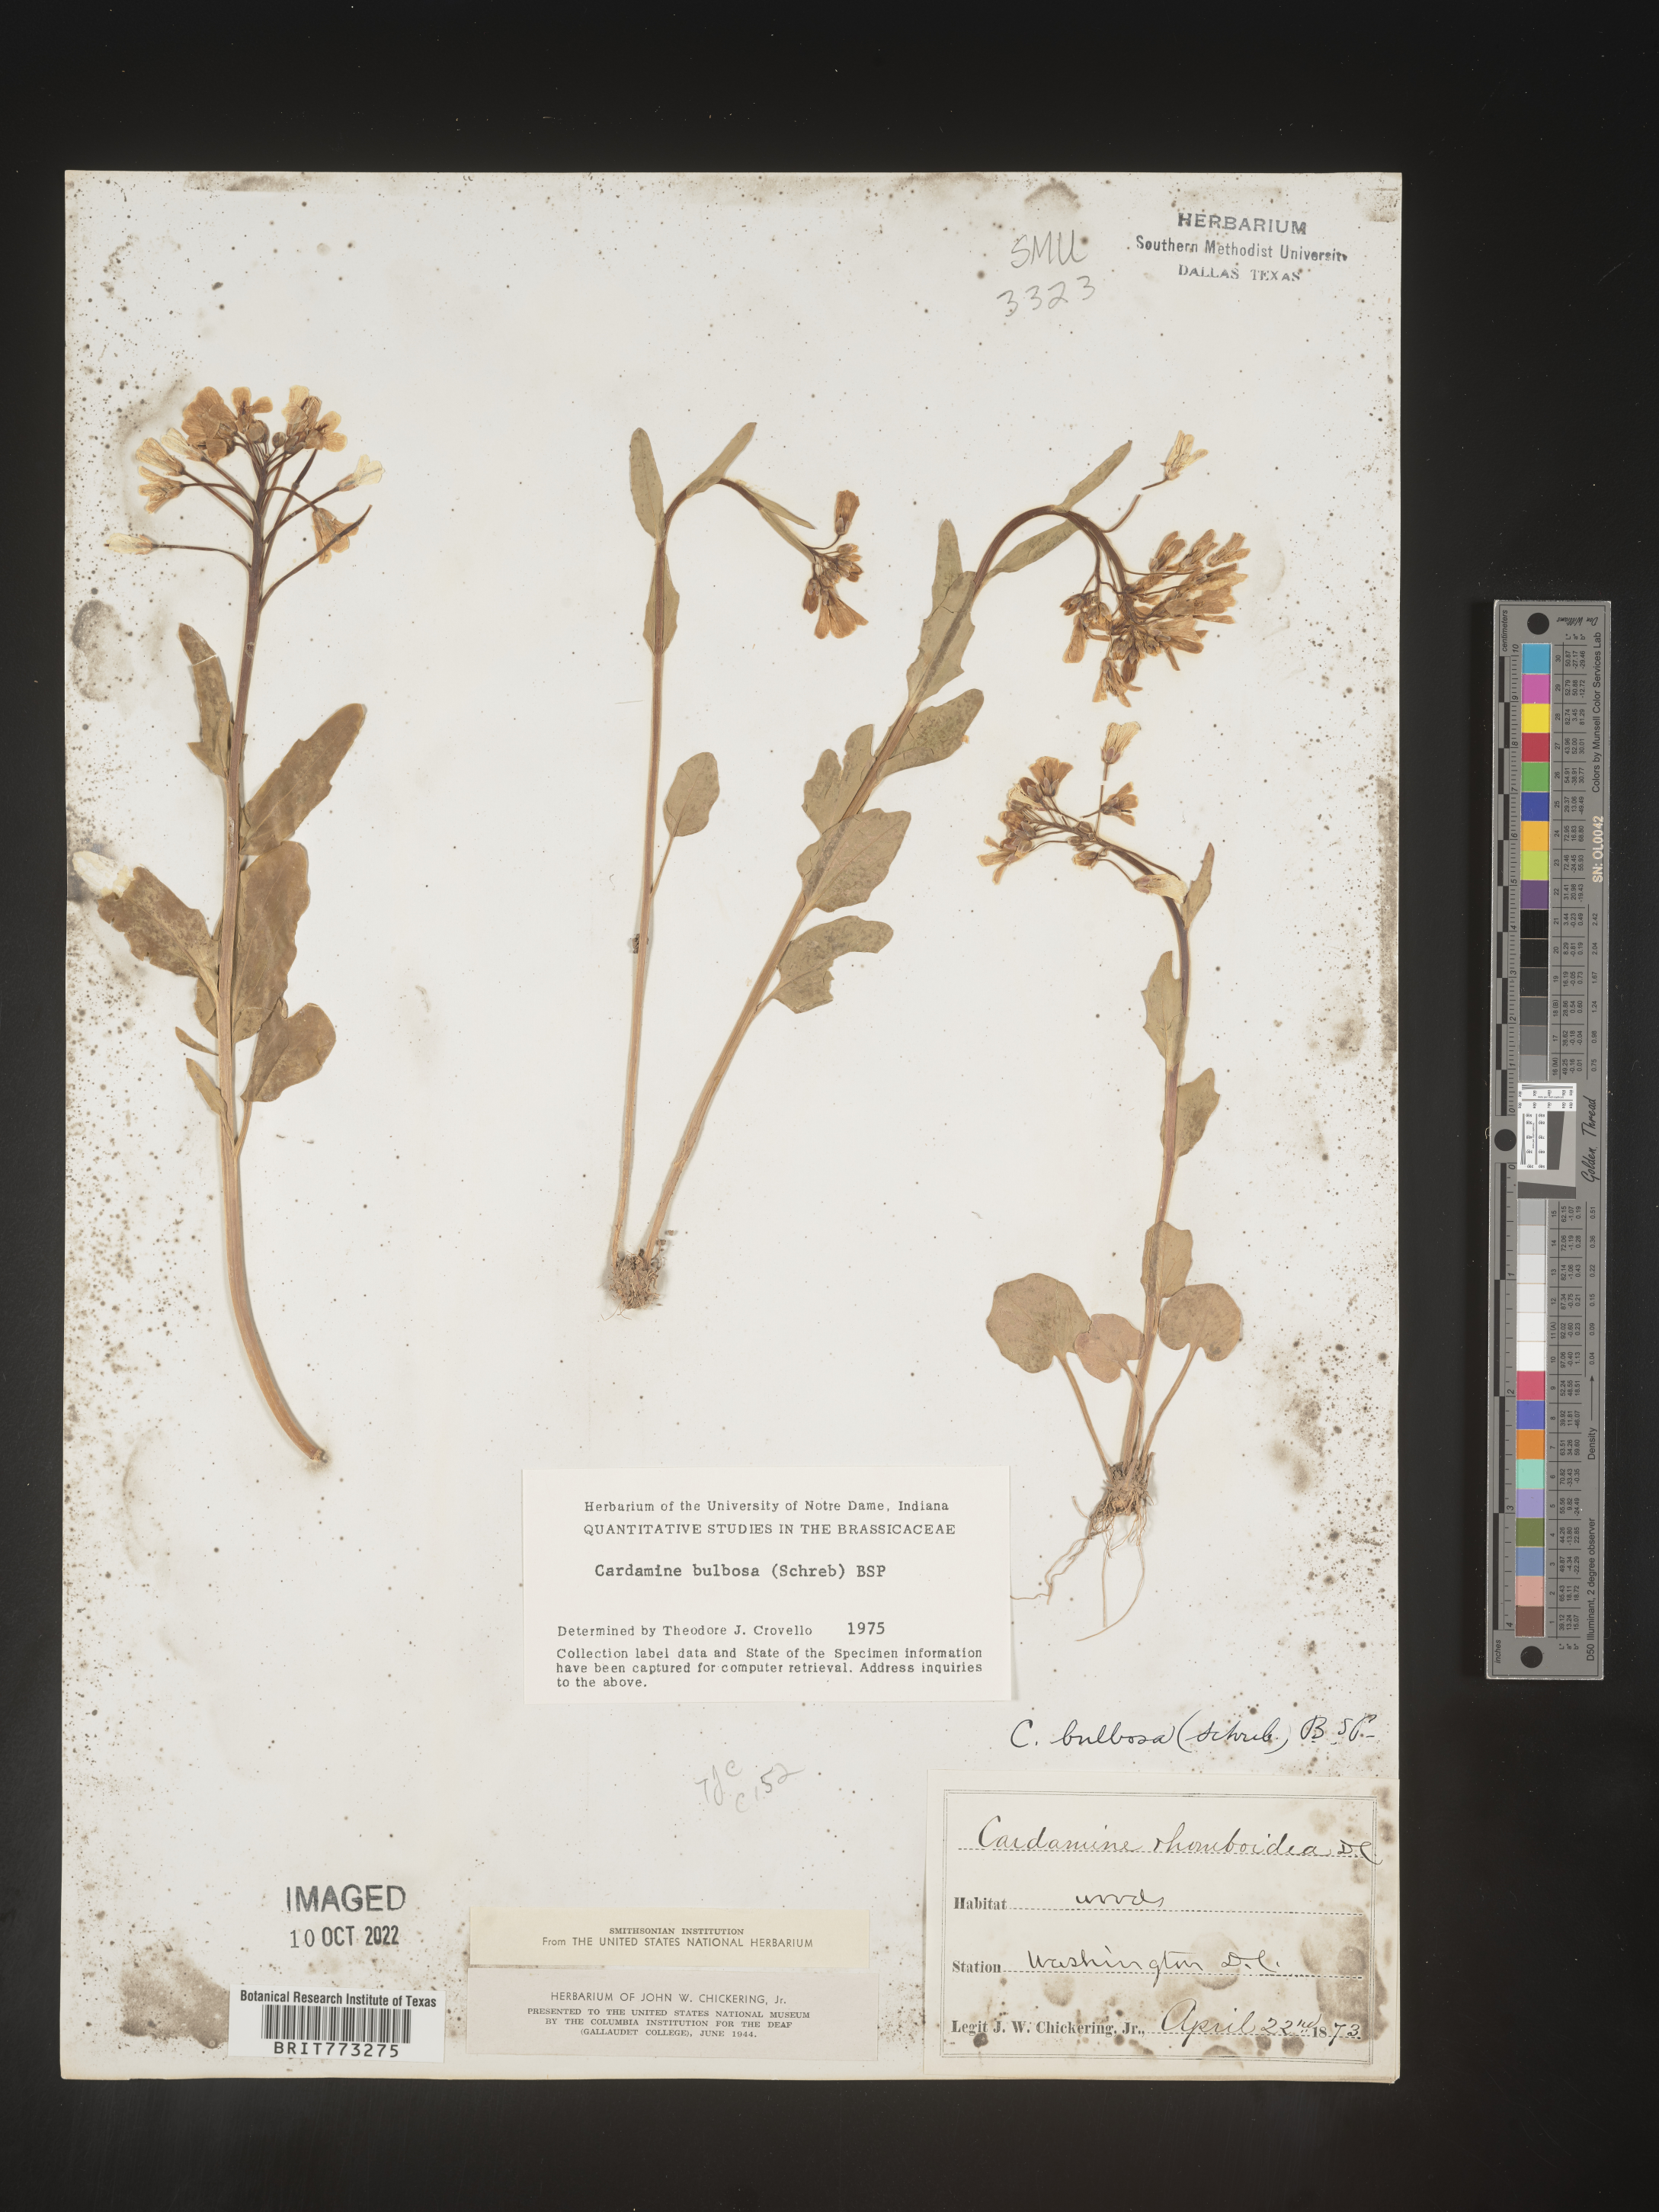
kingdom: Plantae
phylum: Tracheophyta
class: Magnoliopsida
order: Brassicales
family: Brassicaceae
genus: Cardamine
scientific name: Cardamine bulbosa
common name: Spring cress
